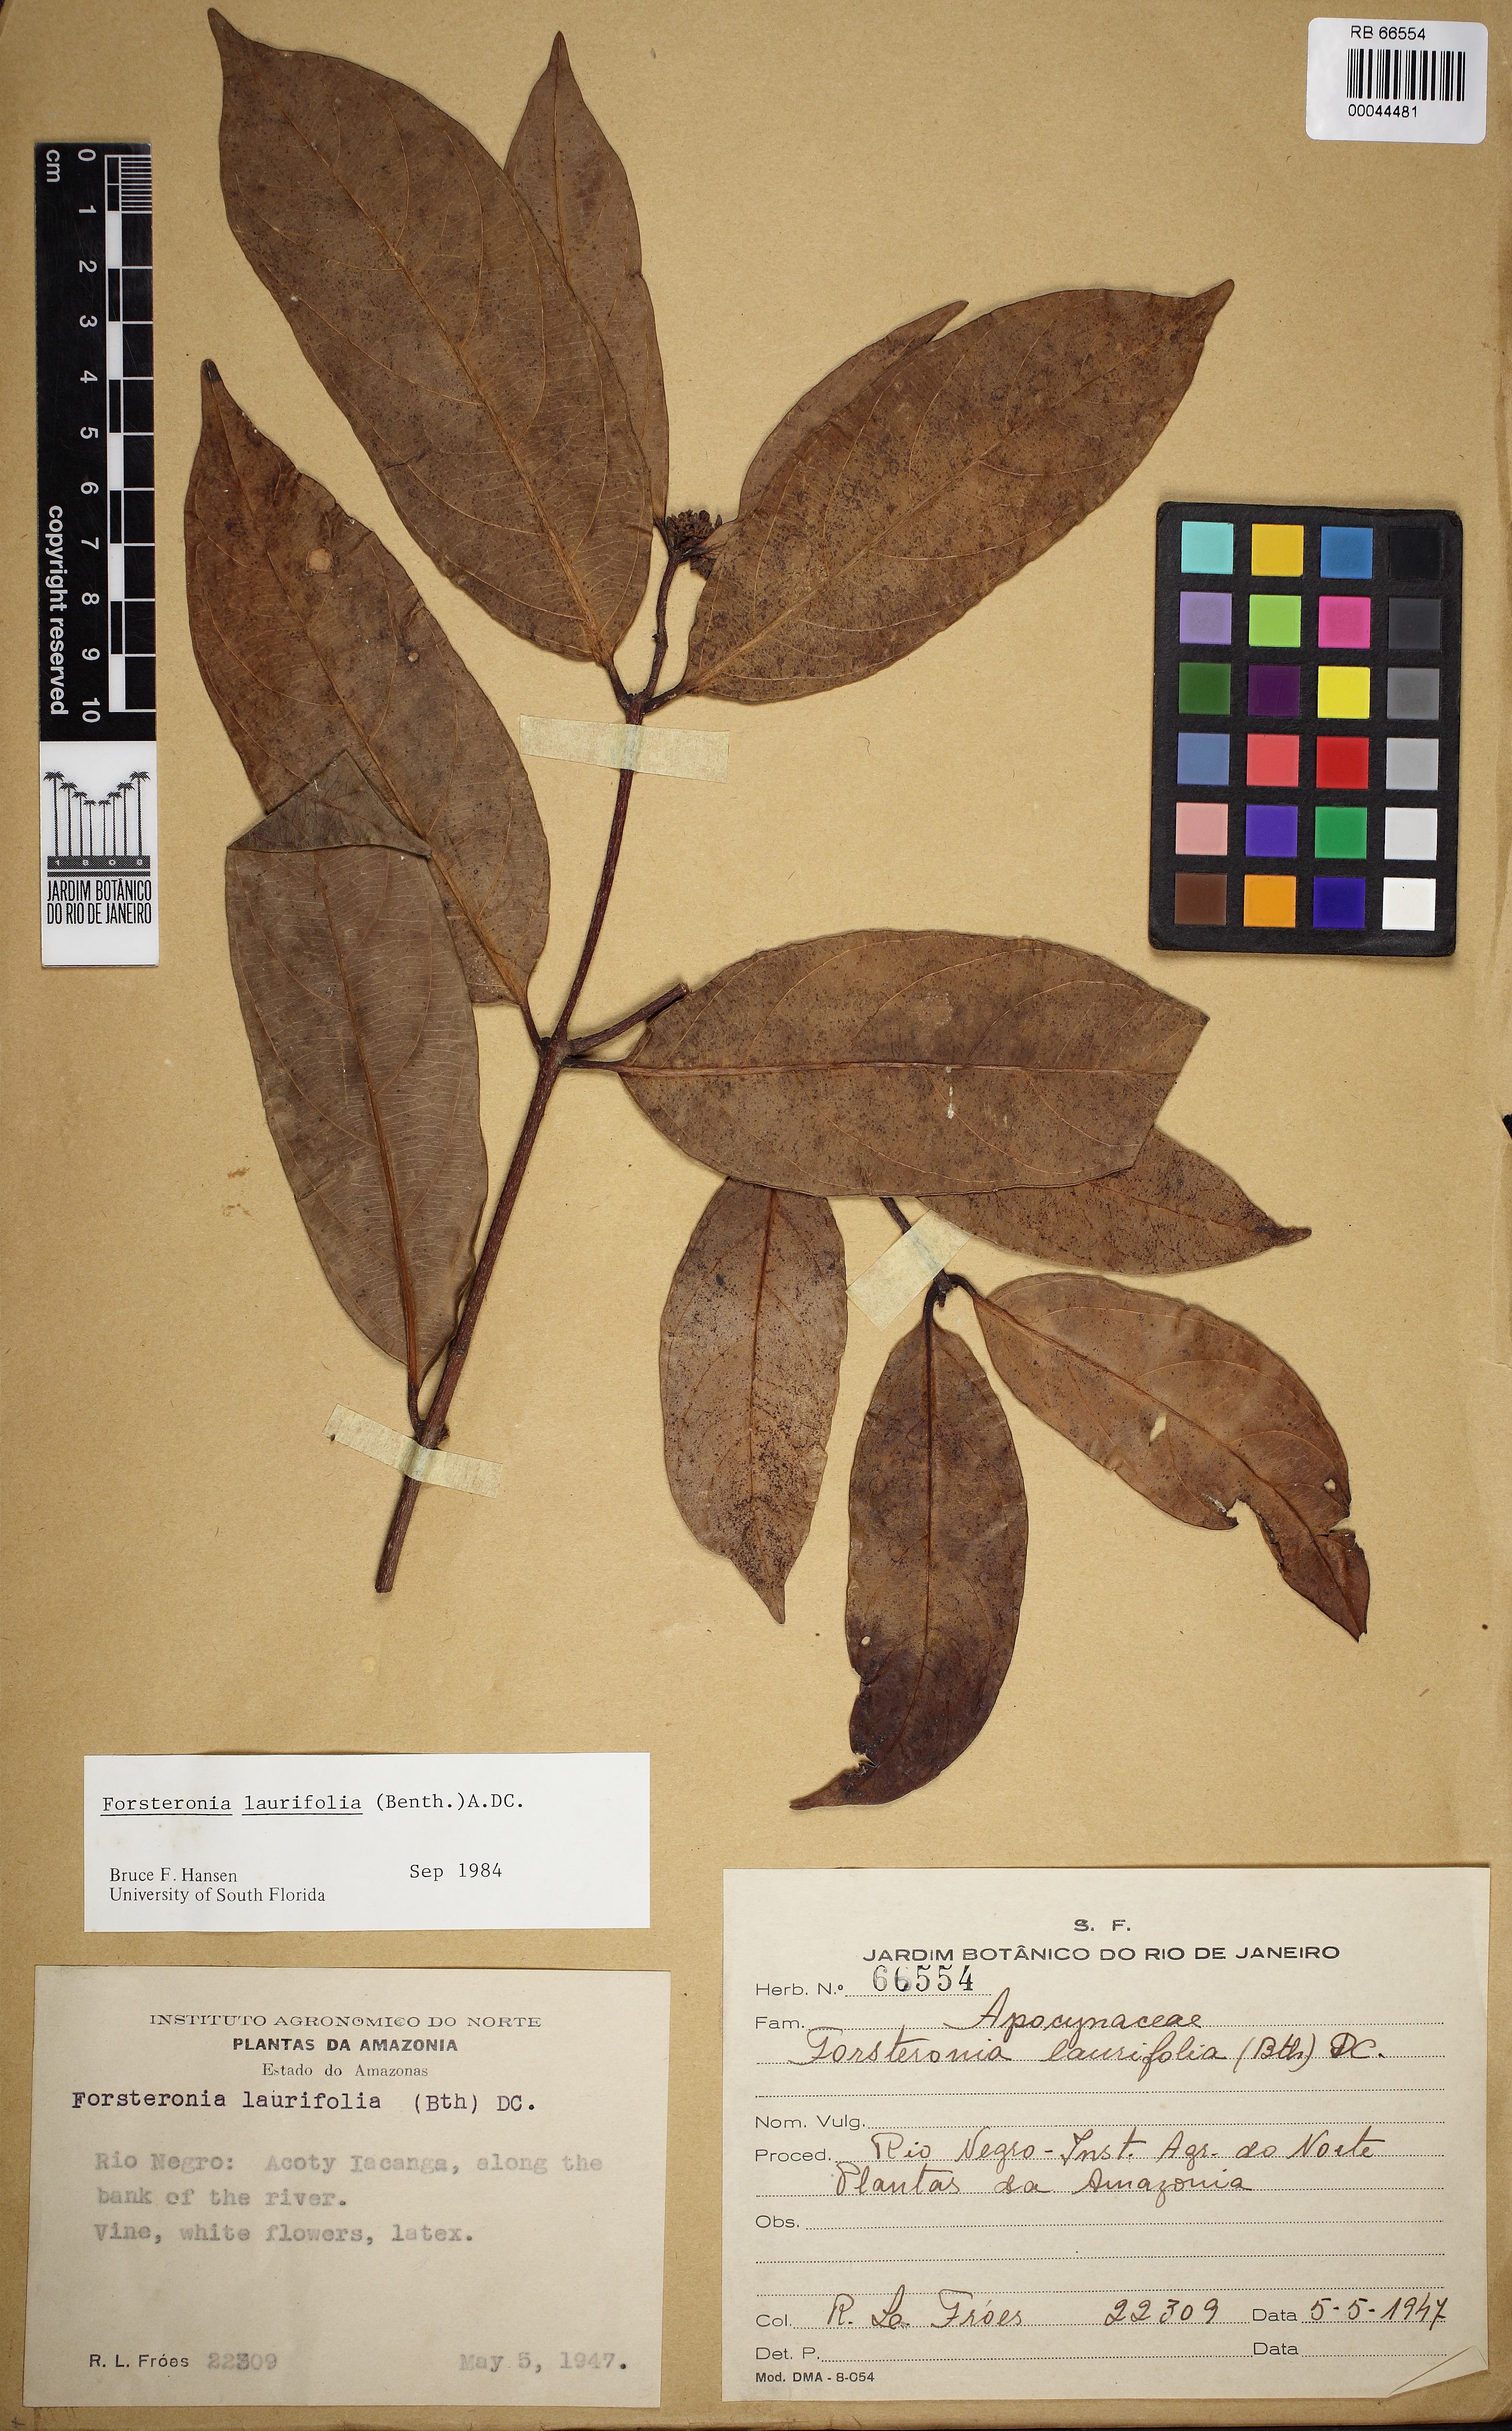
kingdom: Plantae
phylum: Tracheophyta
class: Magnoliopsida
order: Gentianales
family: Apocynaceae
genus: Forsteronia
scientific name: Forsteronia laurifolia
